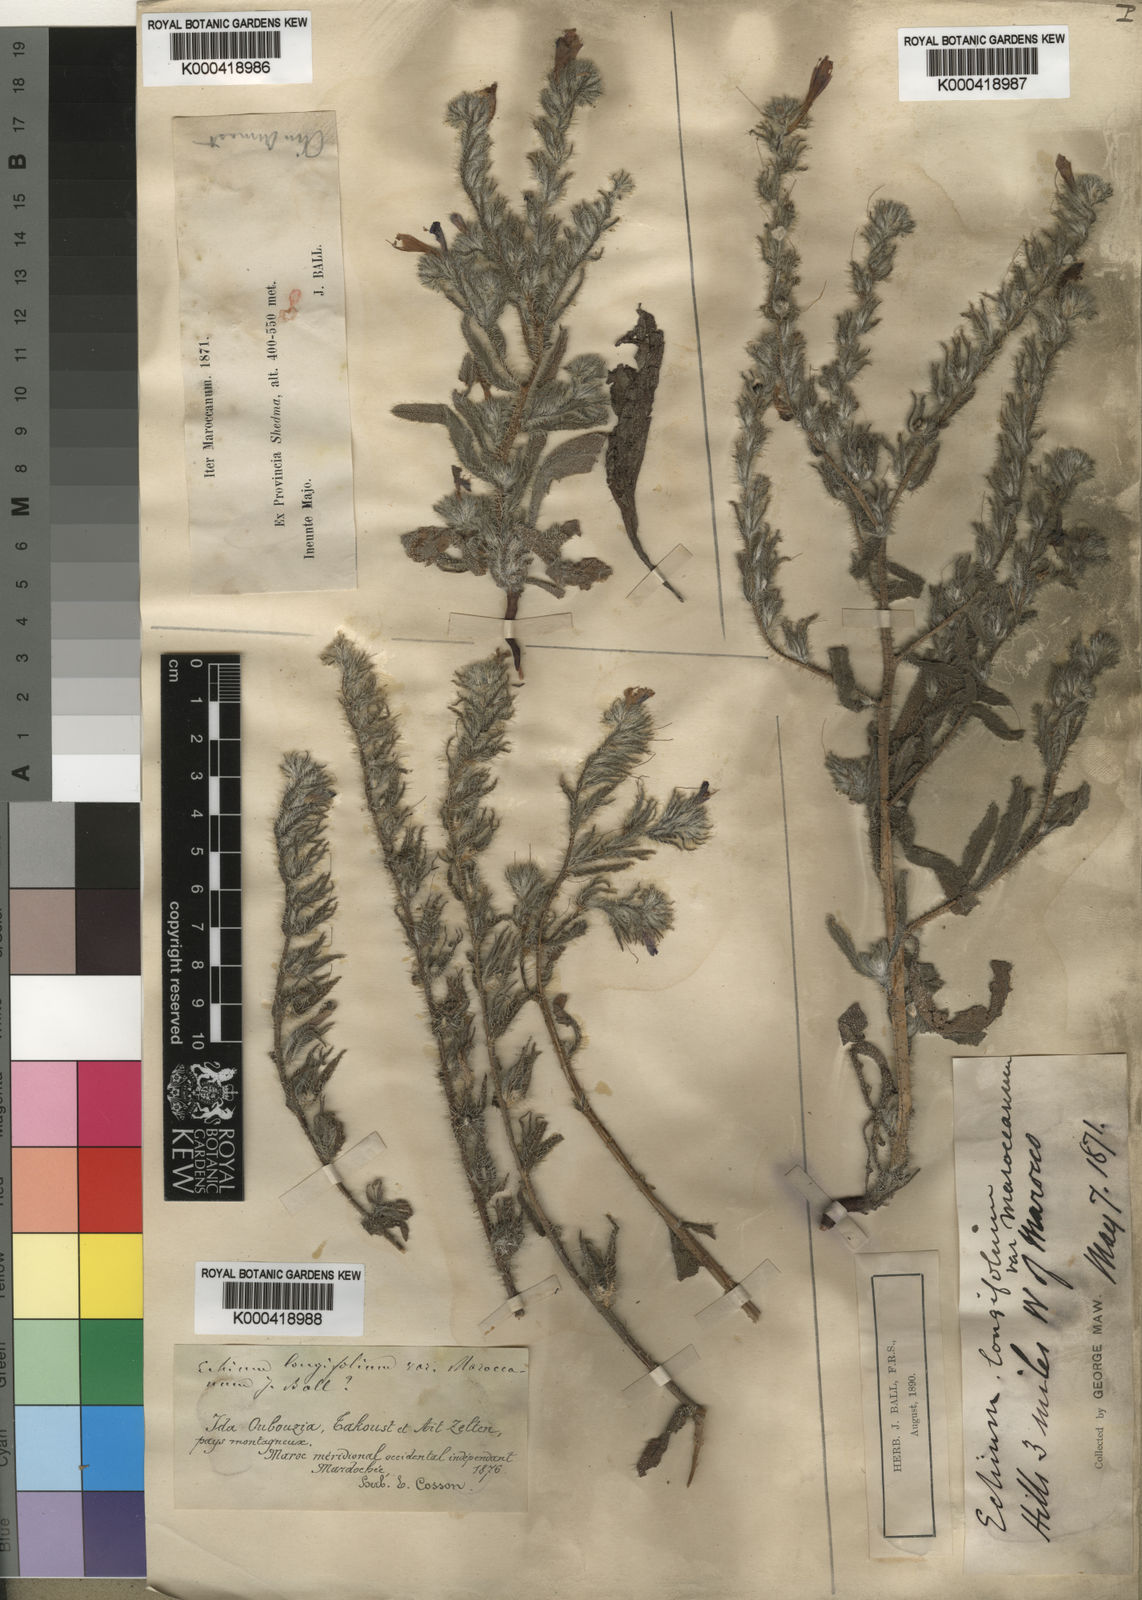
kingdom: Plantae
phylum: Tracheophyta
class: Magnoliopsida
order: Boraginales
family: Boraginaceae
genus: Echium
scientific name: Echium longifolium
